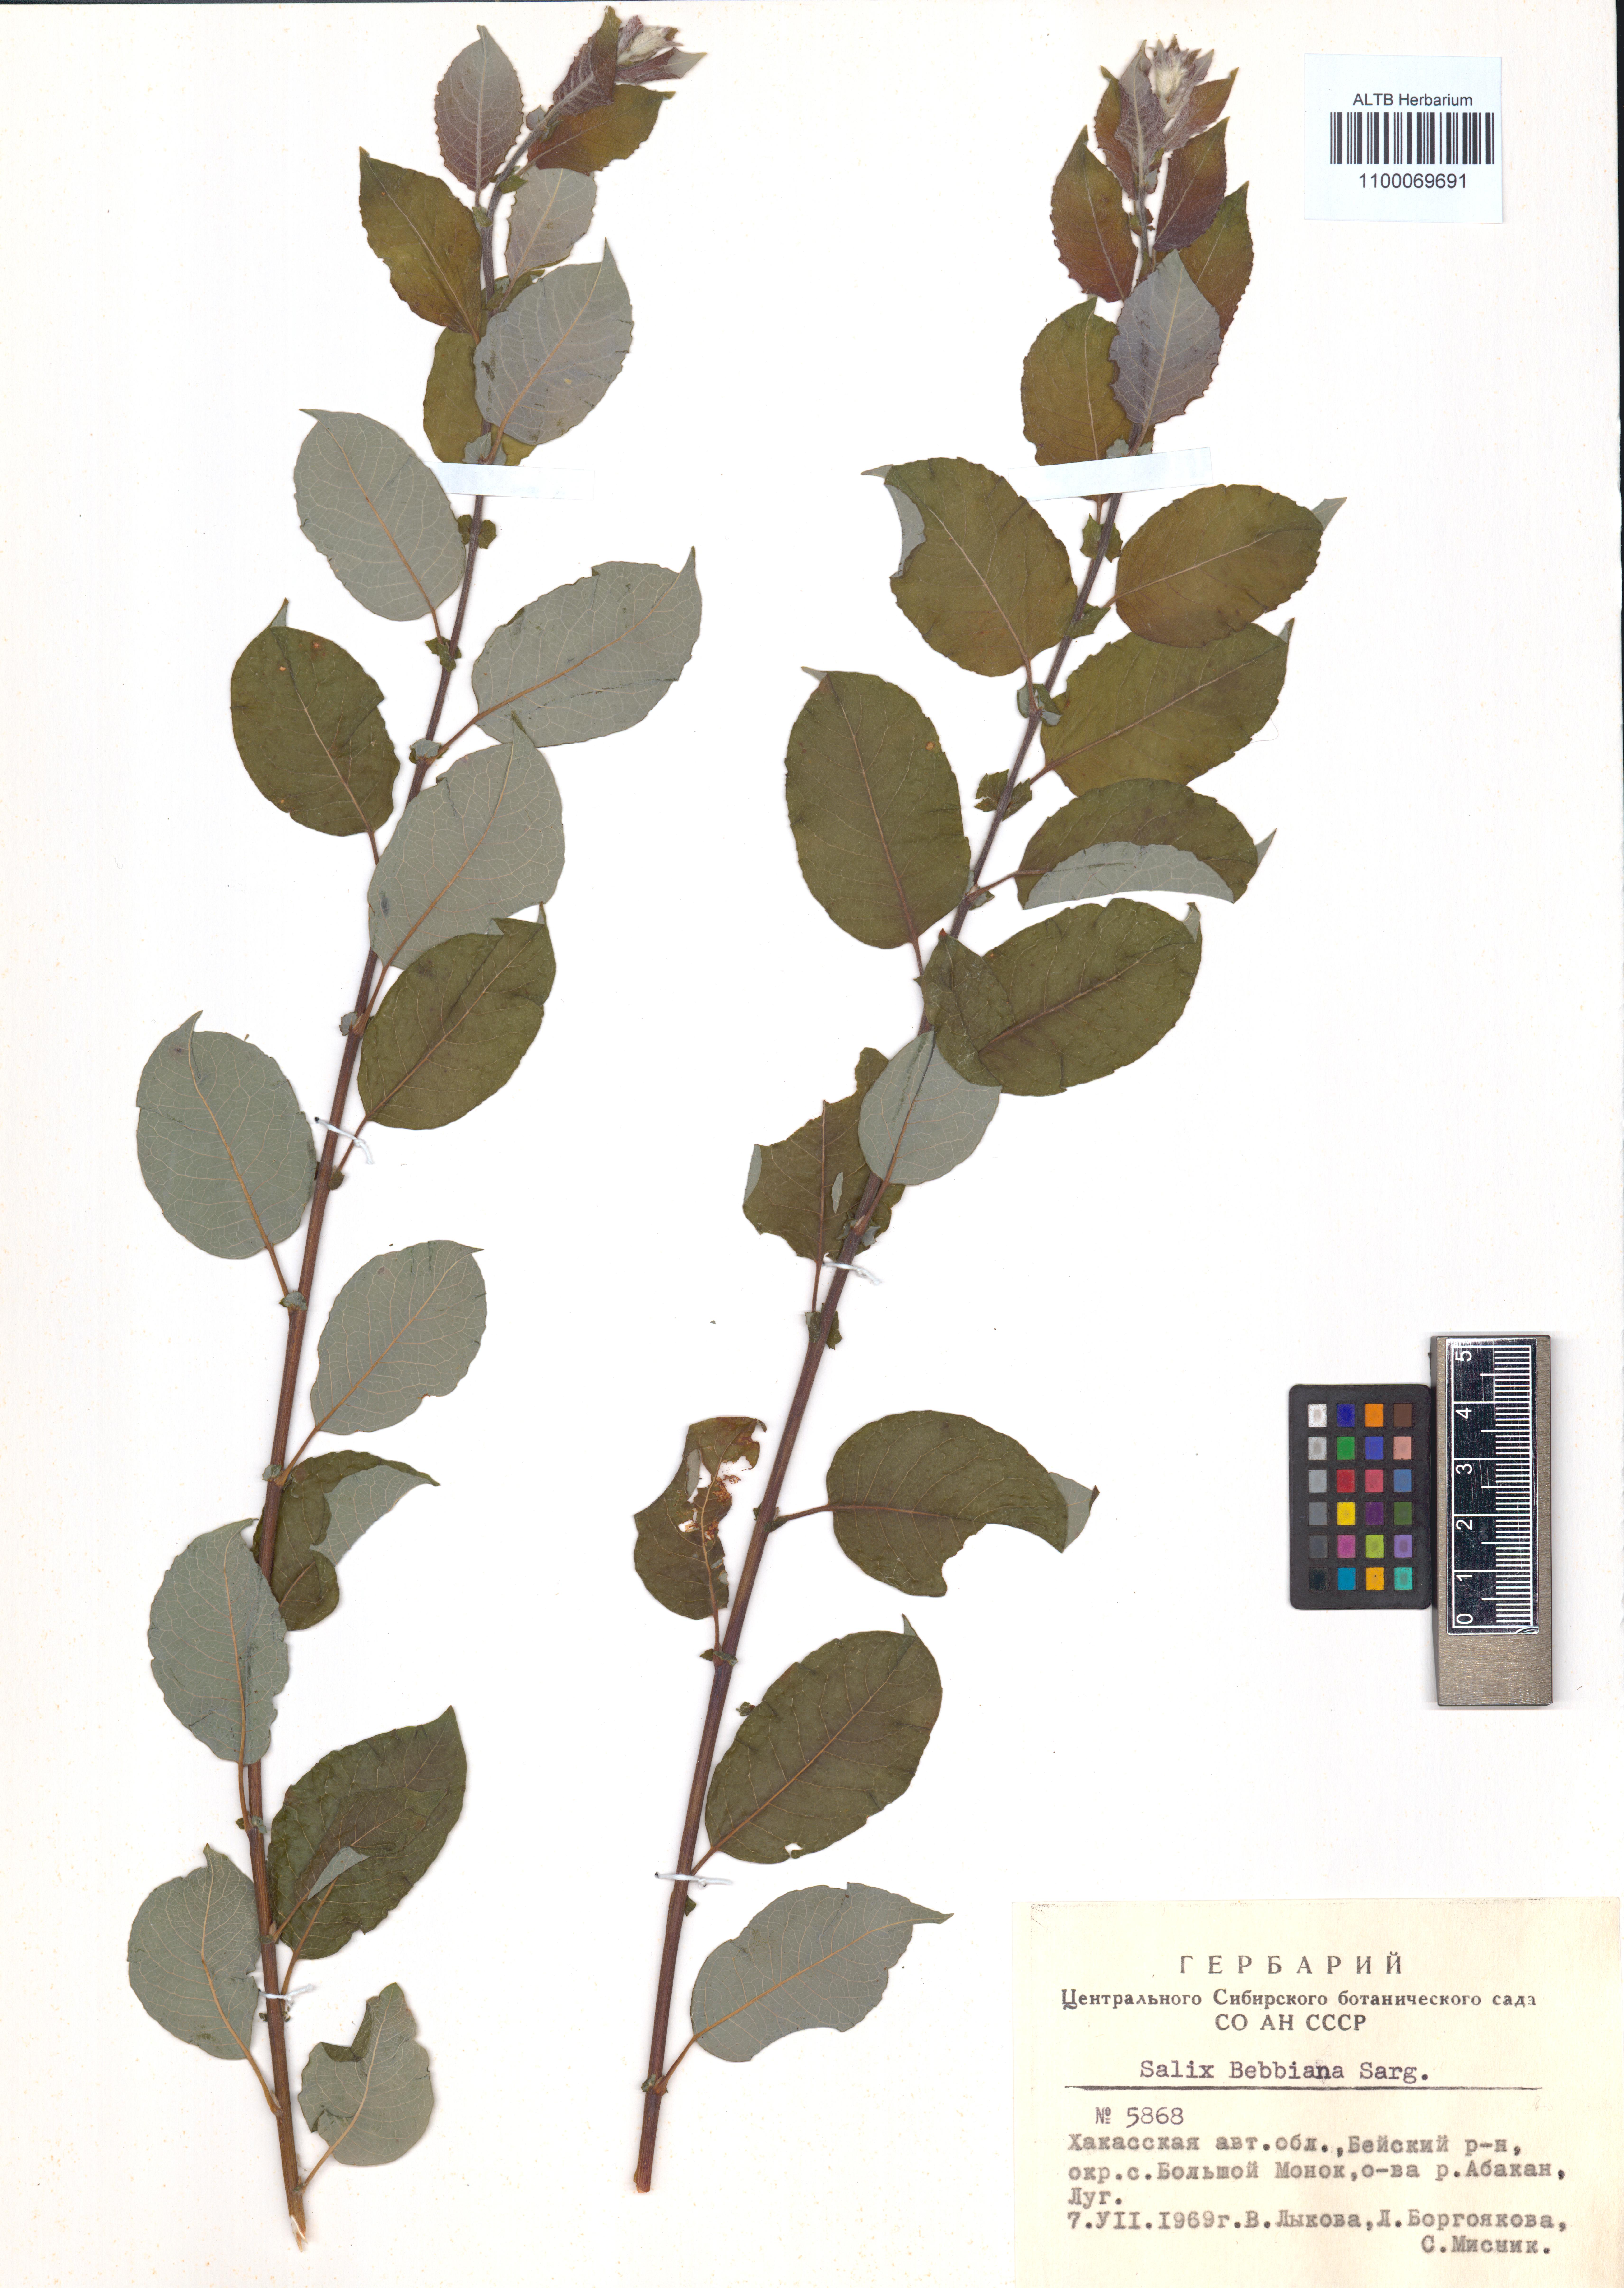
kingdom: Plantae
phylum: Tracheophyta
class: Magnoliopsida
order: Malpighiales
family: Salicaceae
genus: Salix
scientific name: Salix bebbiana
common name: Bebb's willow
